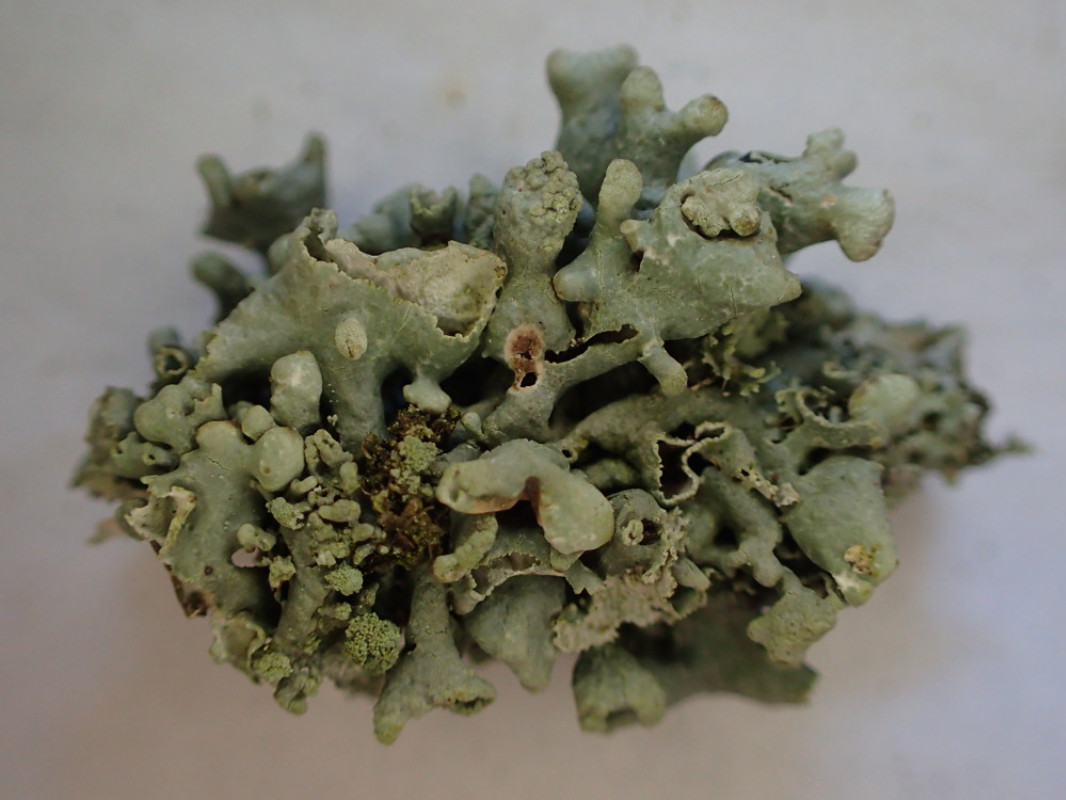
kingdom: Fungi
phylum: Ascomycota
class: Lecanoromycetes
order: Lecanorales
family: Parmeliaceae
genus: Hypogymnia
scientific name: Hypogymnia tubulosa
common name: finger-kvistlav
